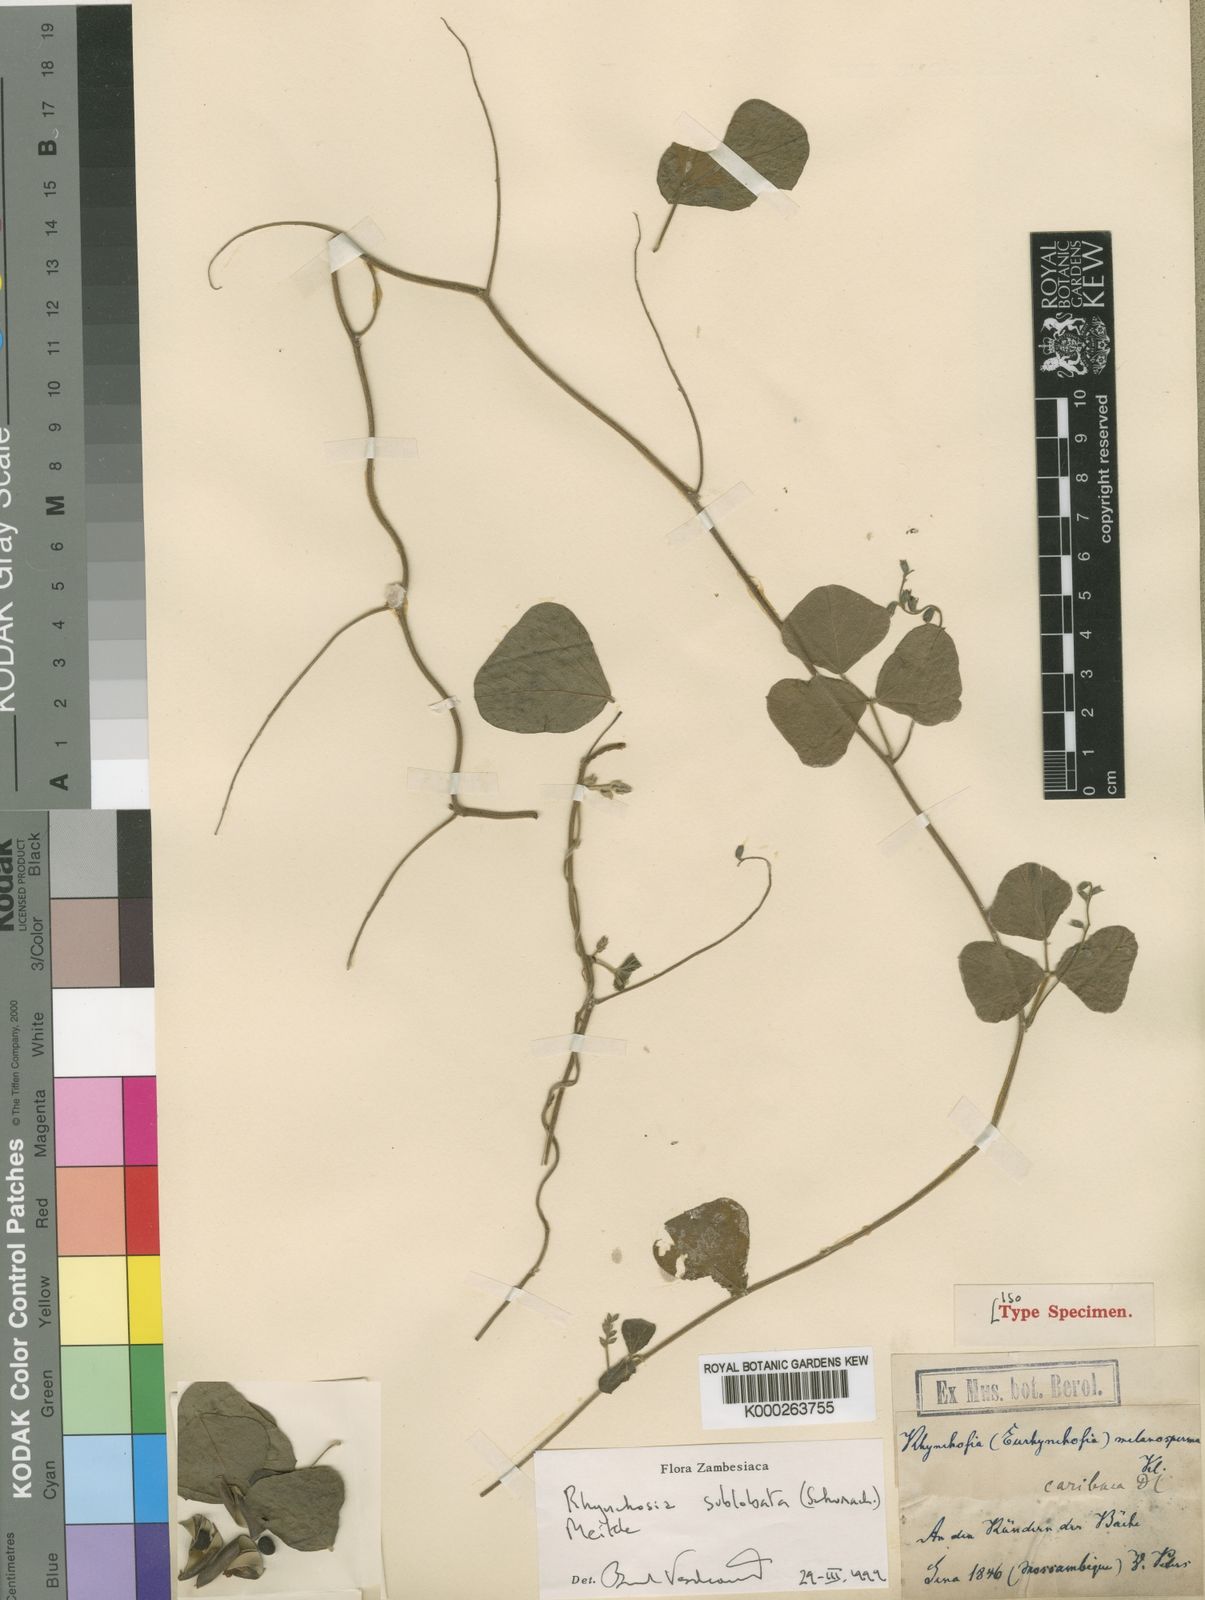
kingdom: Plantae
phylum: Tracheophyta
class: Magnoliopsida
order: Fabales
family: Fabaceae
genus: Rhynchosia
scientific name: Rhynchosia sublobata
